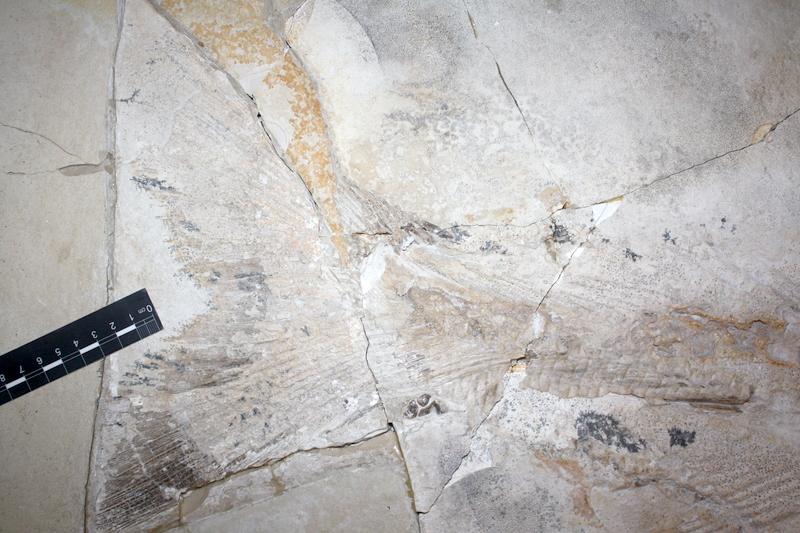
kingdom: Animalia
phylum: Chordata
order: Amiiformes
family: Caturidae
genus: Caturus
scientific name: Caturus giganteus
